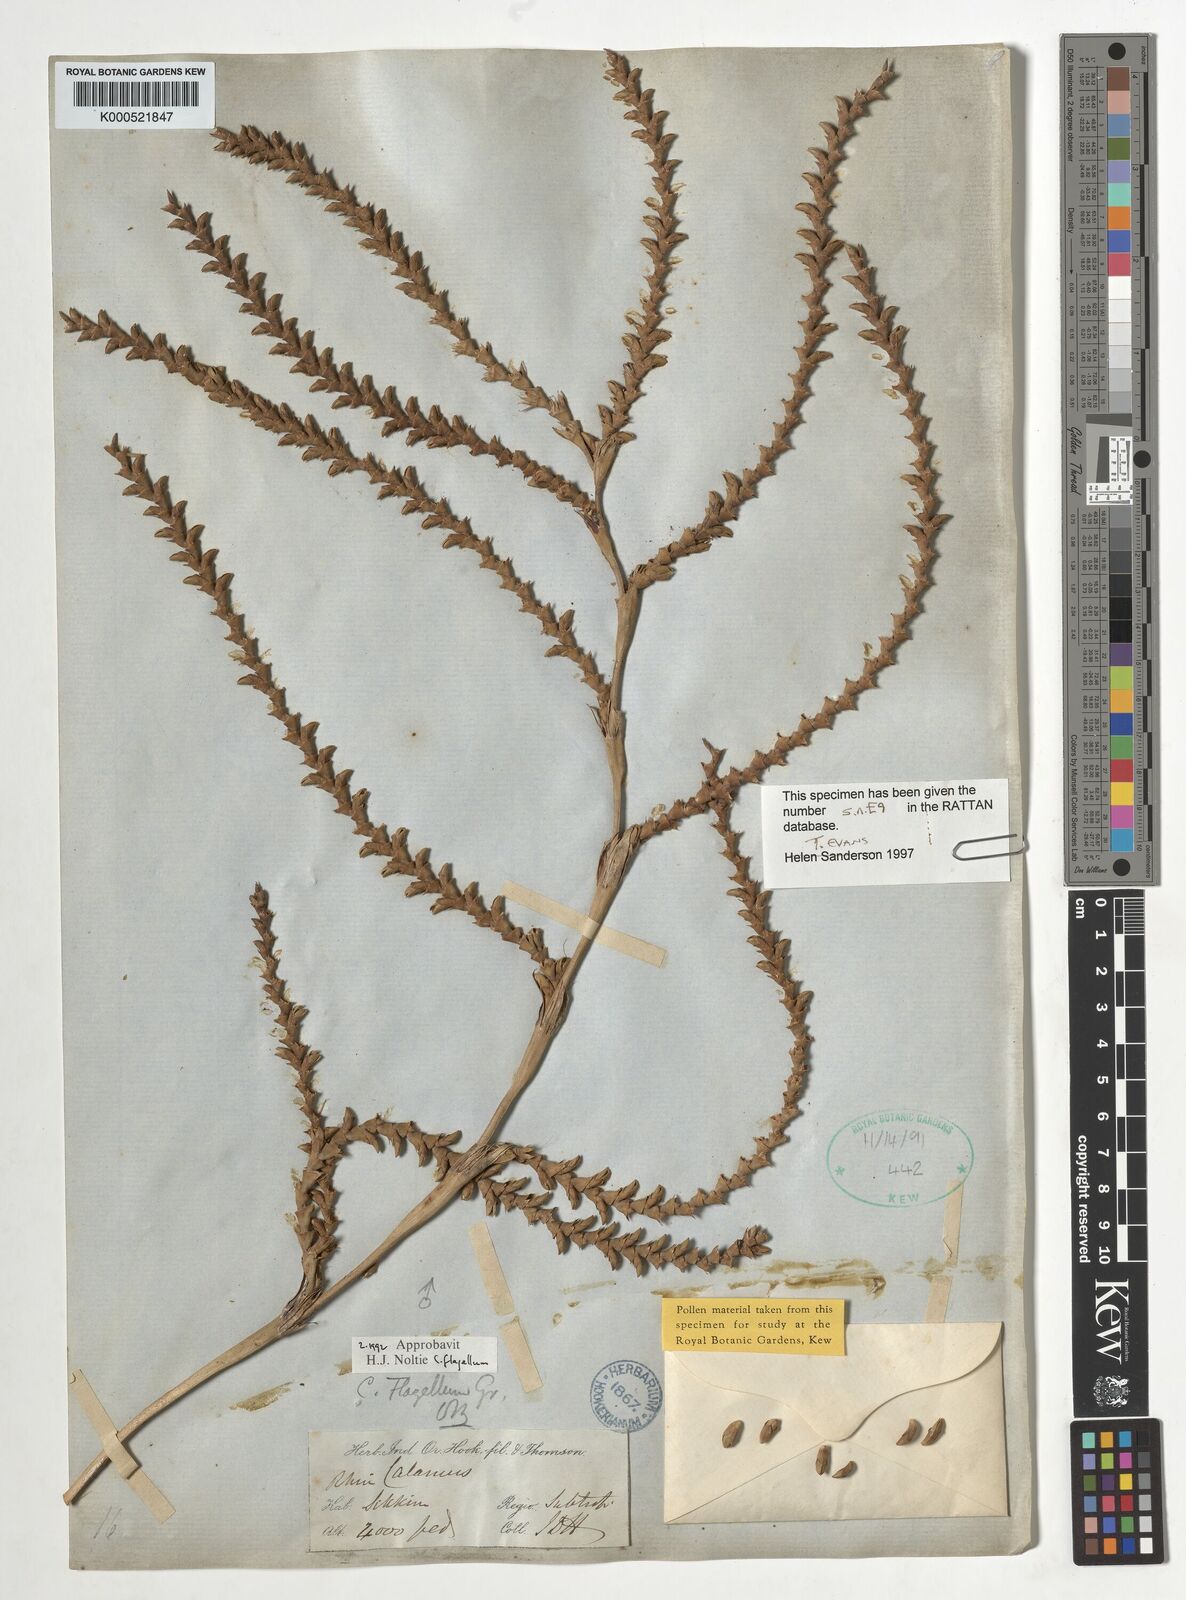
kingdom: Plantae
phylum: Tracheophyta
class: Liliopsida
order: Arecales
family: Arecaceae
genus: Calamus
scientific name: Calamus
